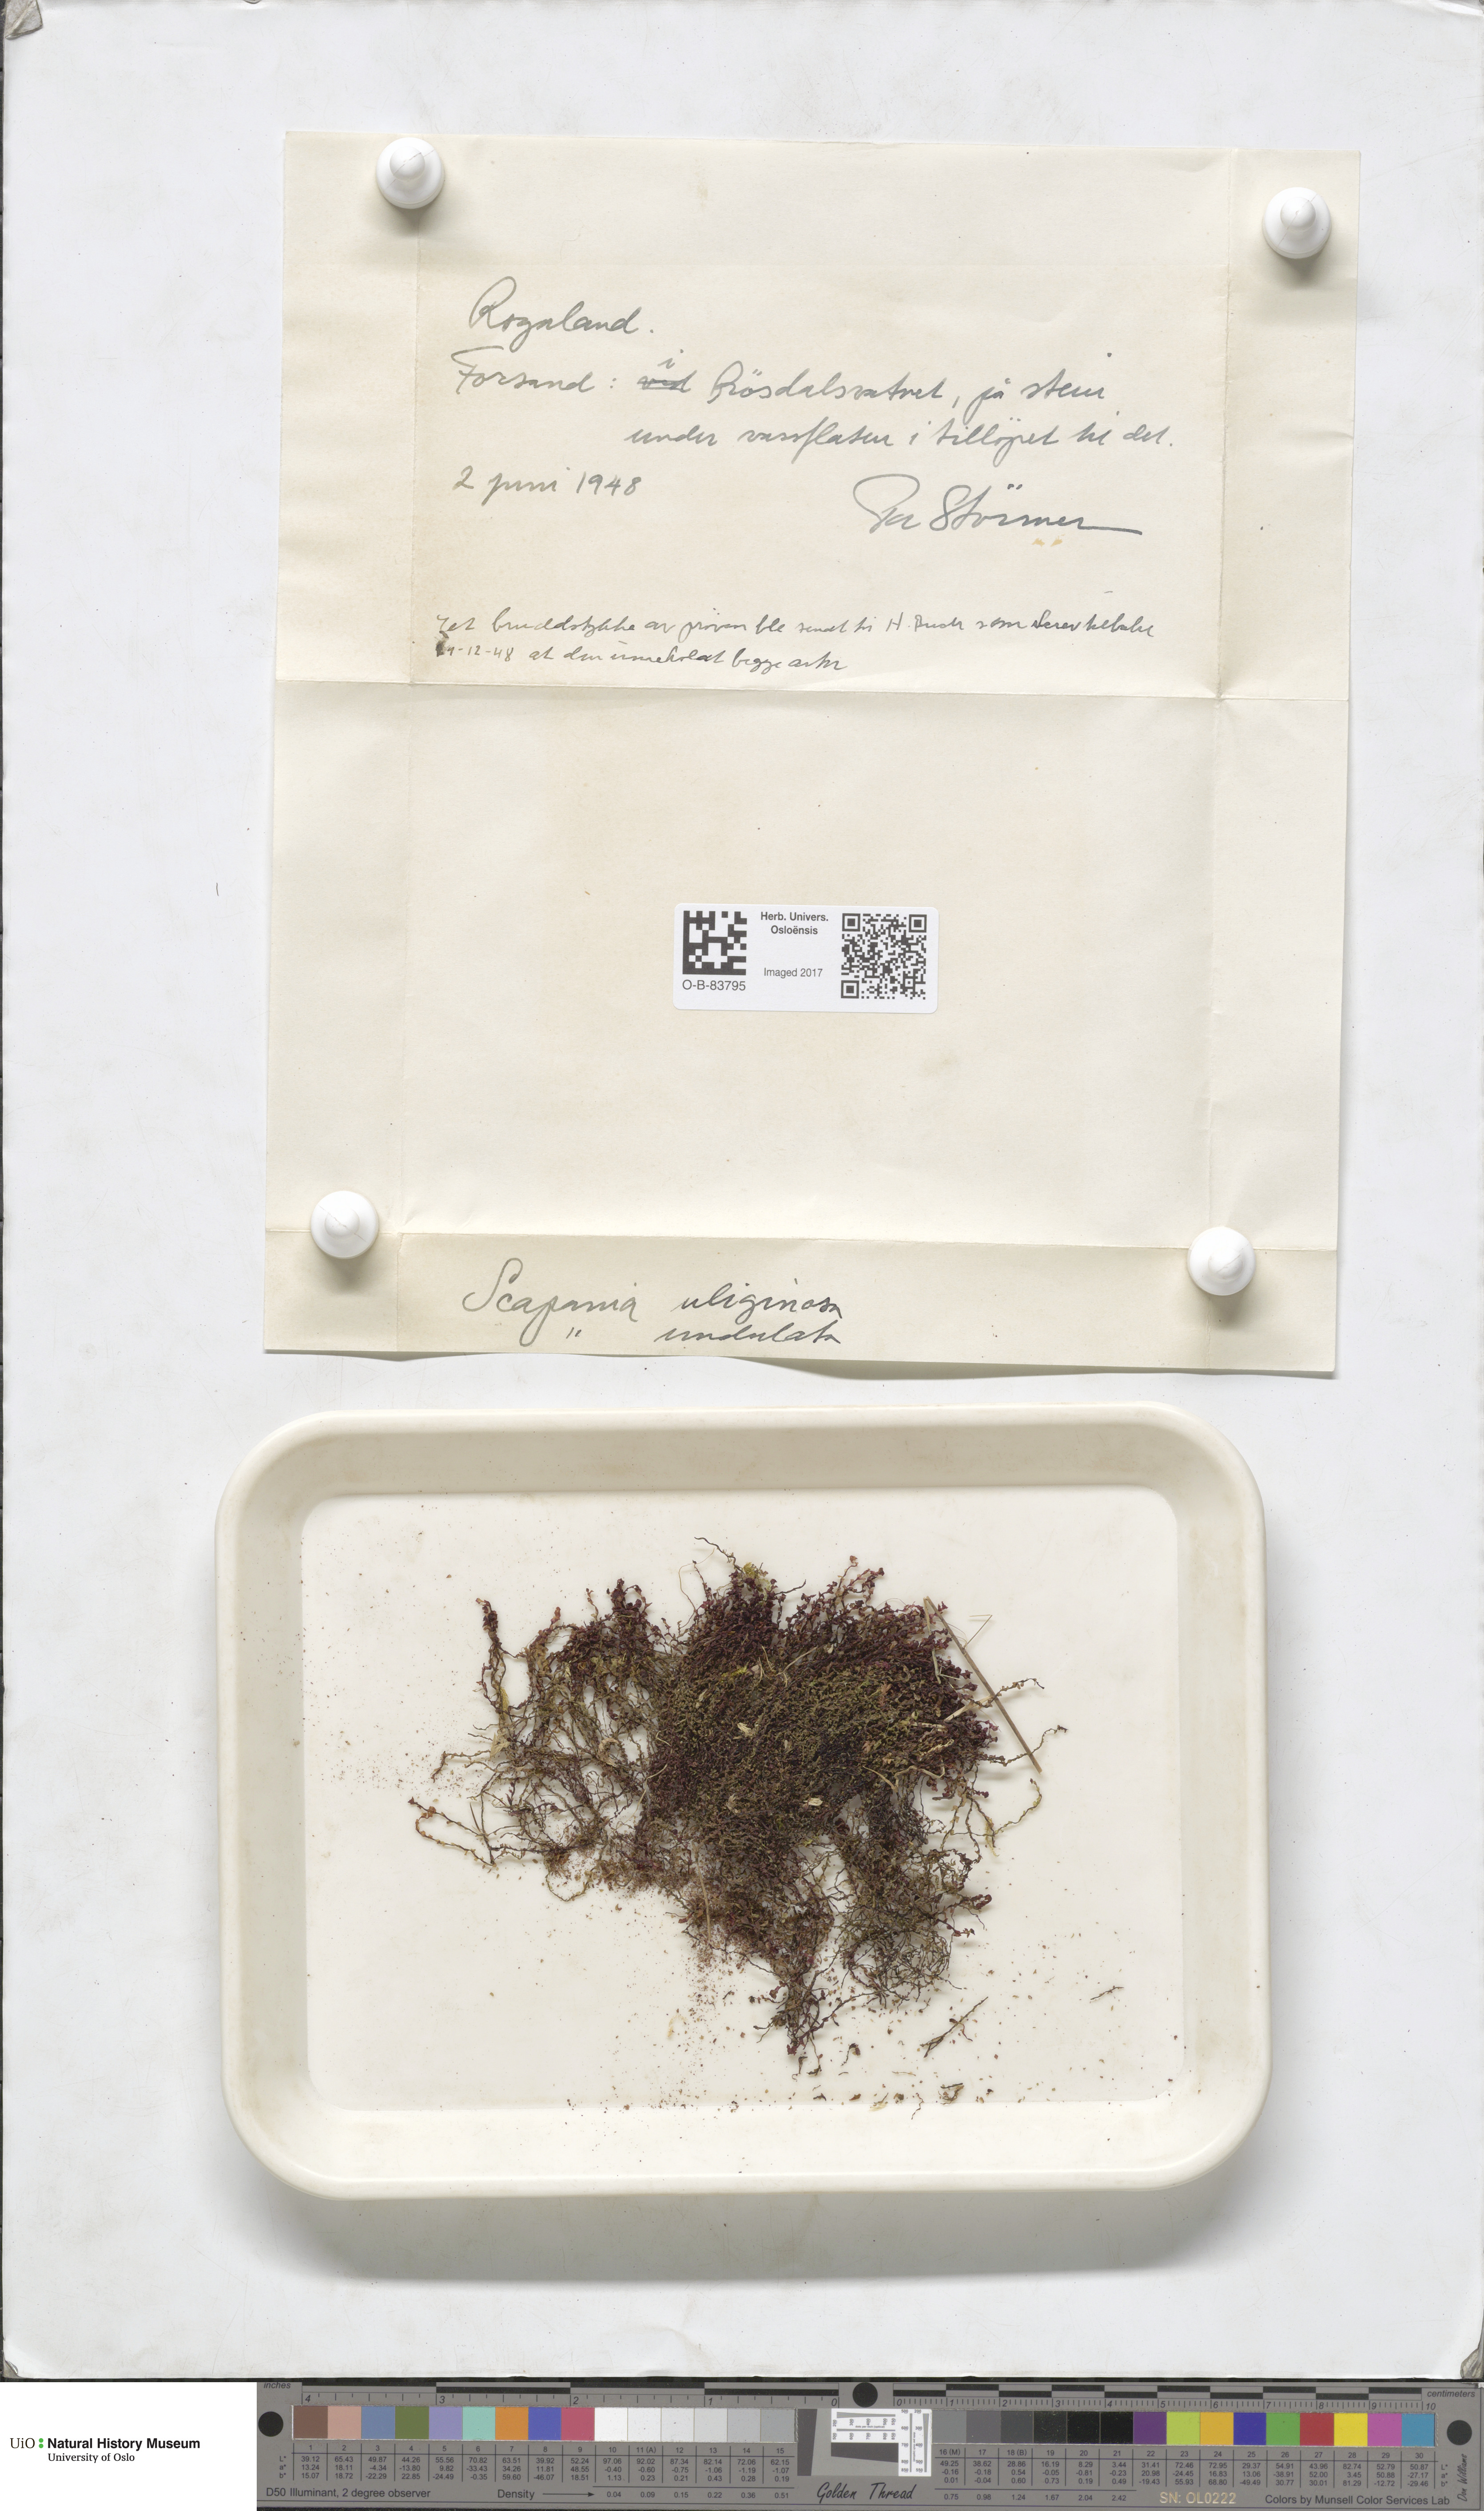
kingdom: Plantae
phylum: Marchantiophyta
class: Jungermanniopsida
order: Jungermanniales
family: Scapaniaceae
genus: Scapania
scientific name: Scapania uliginosa
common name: Marsh earwort
